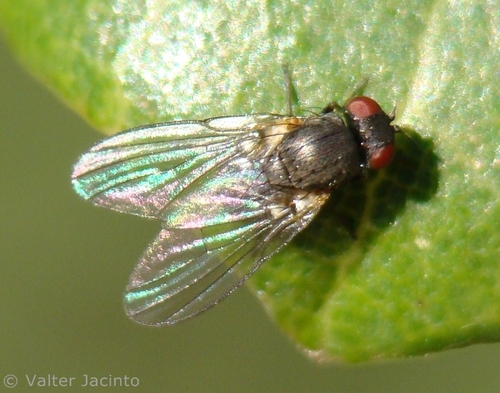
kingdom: Animalia
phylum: Arthropoda
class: Insecta
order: Diptera
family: Agromyzidae
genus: Agromyza
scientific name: Agromyza
